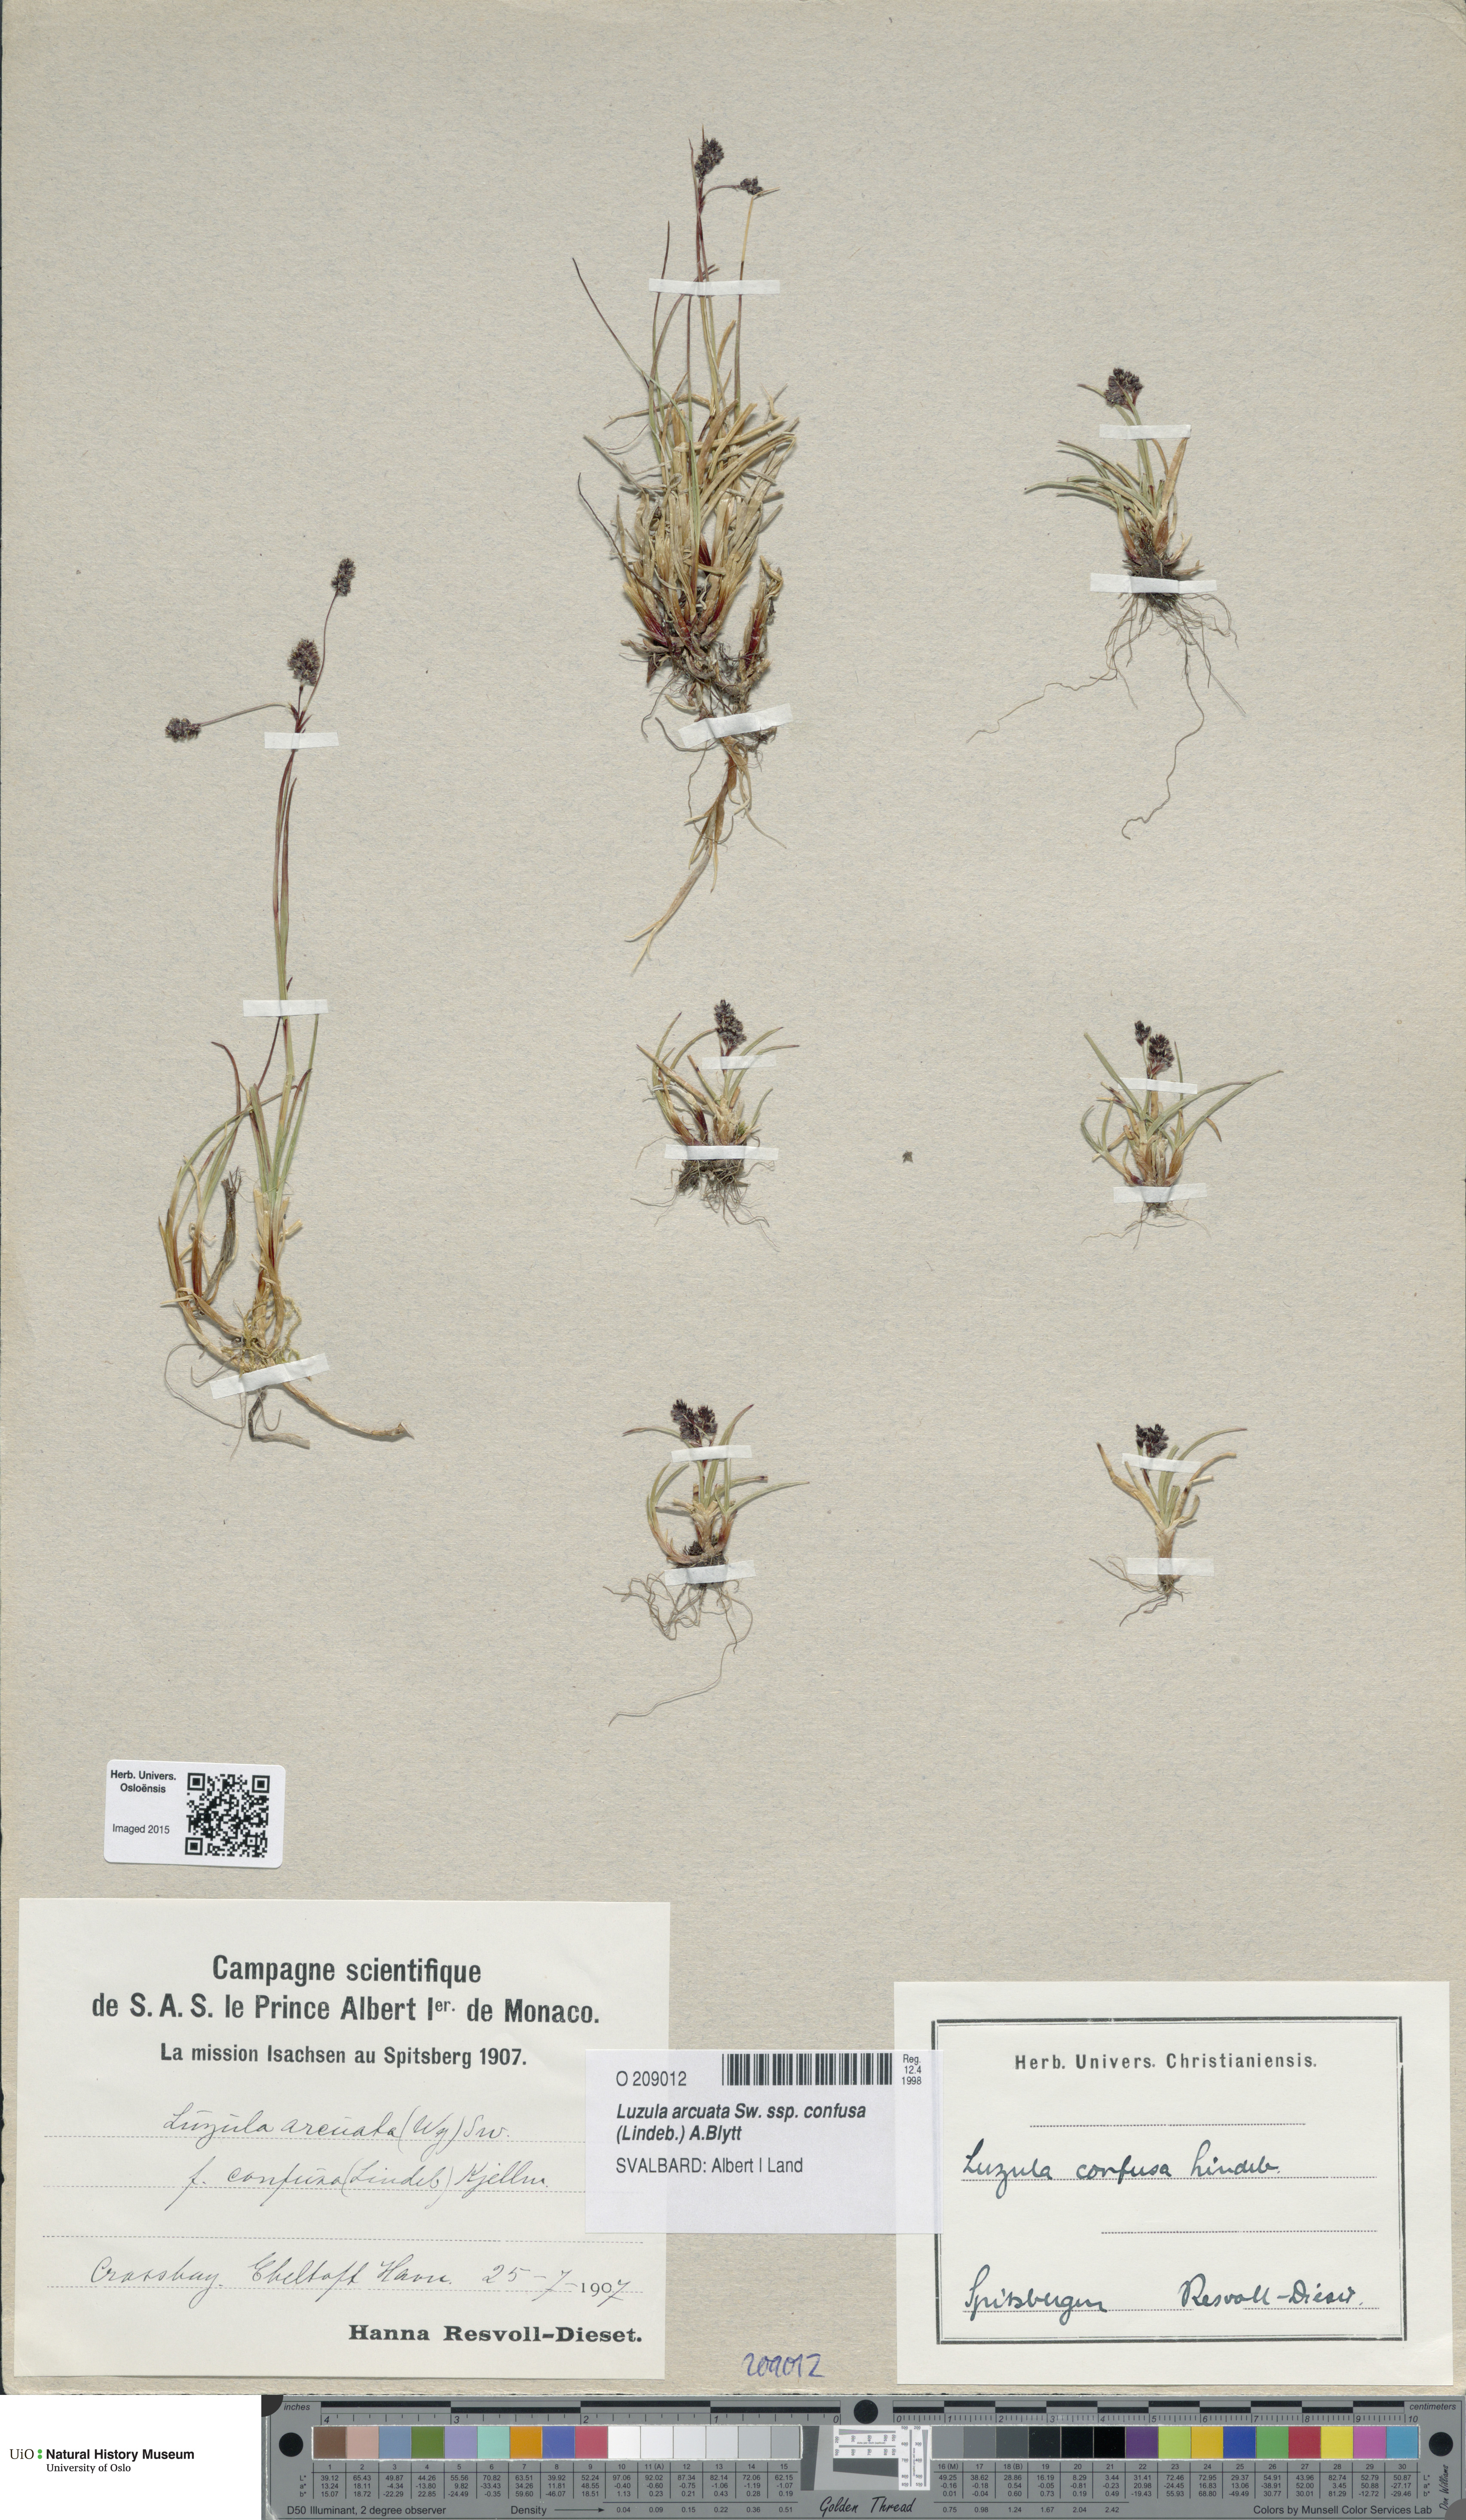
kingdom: Plantae
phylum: Tracheophyta
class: Liliopsida
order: Poales
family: Juncaceae
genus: Luzula
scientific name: Luzula confusa
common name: Northern wood rush
